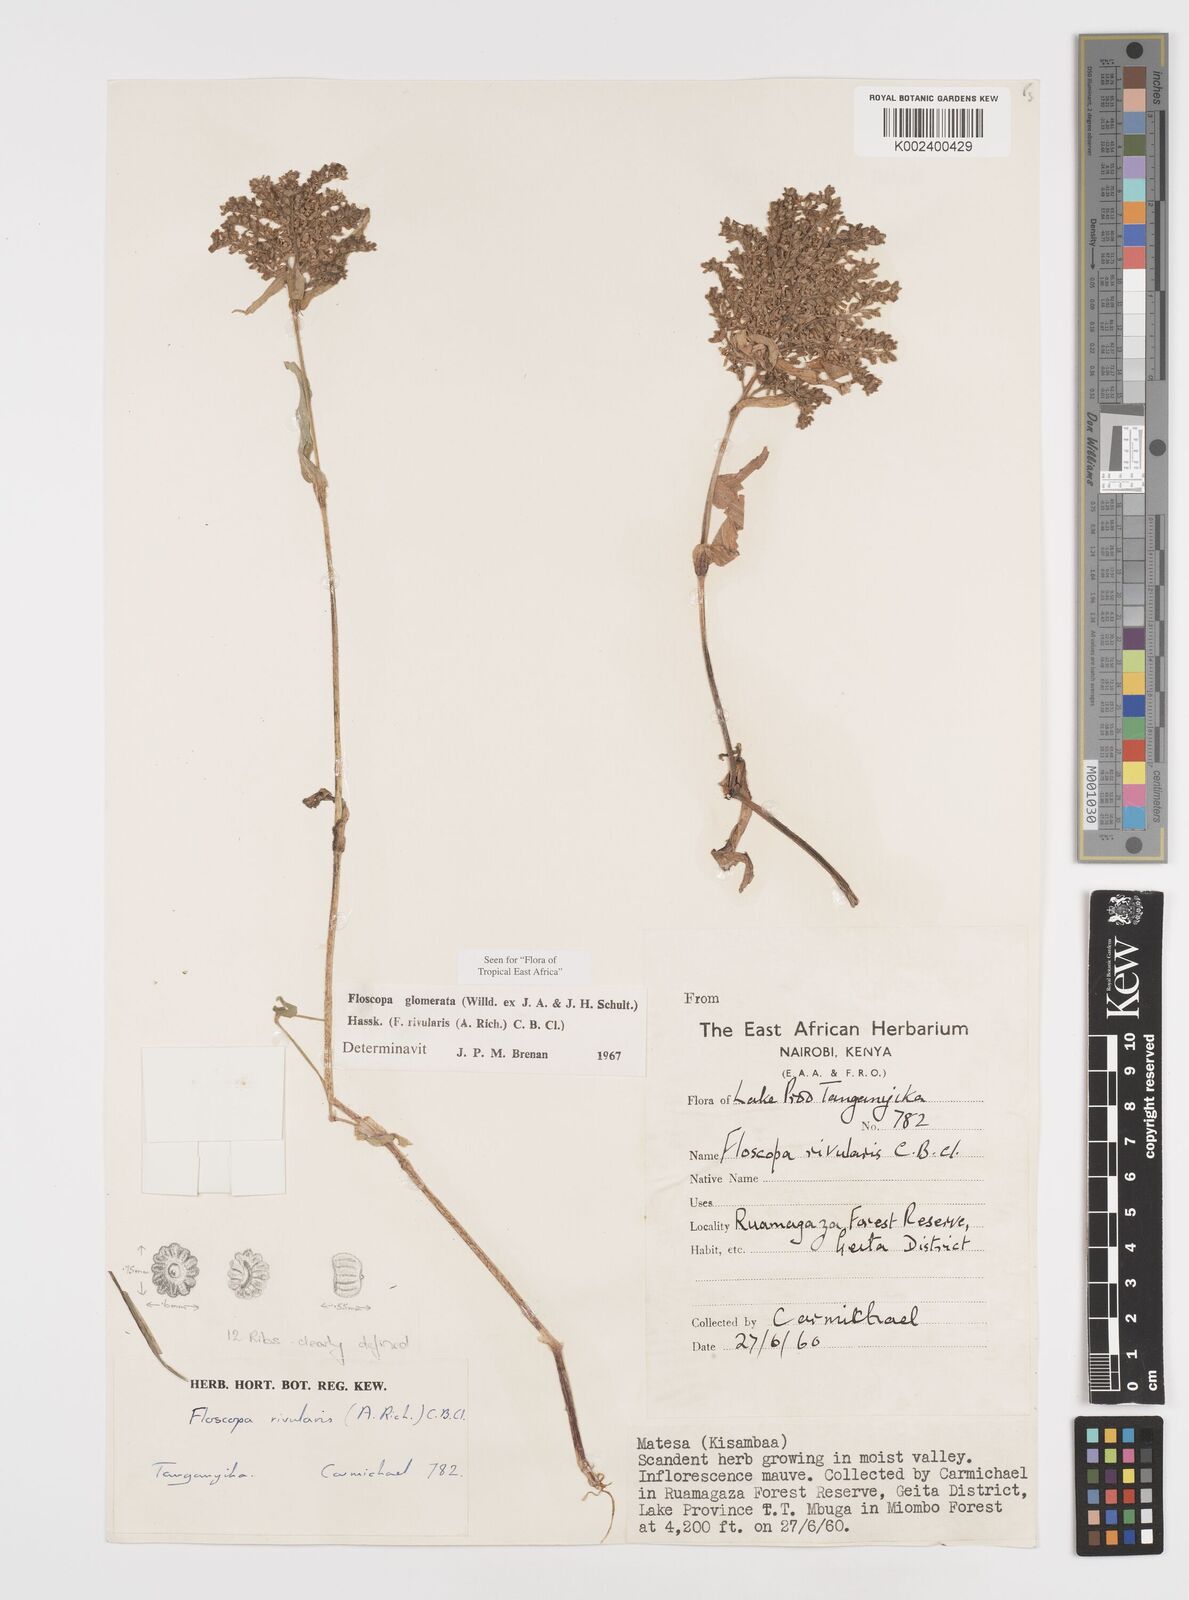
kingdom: Plantae
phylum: Tracheophyta
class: Liliopsida
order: Commelinales
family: Commelinaceae
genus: Floscopa
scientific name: Floscopa glomerata
